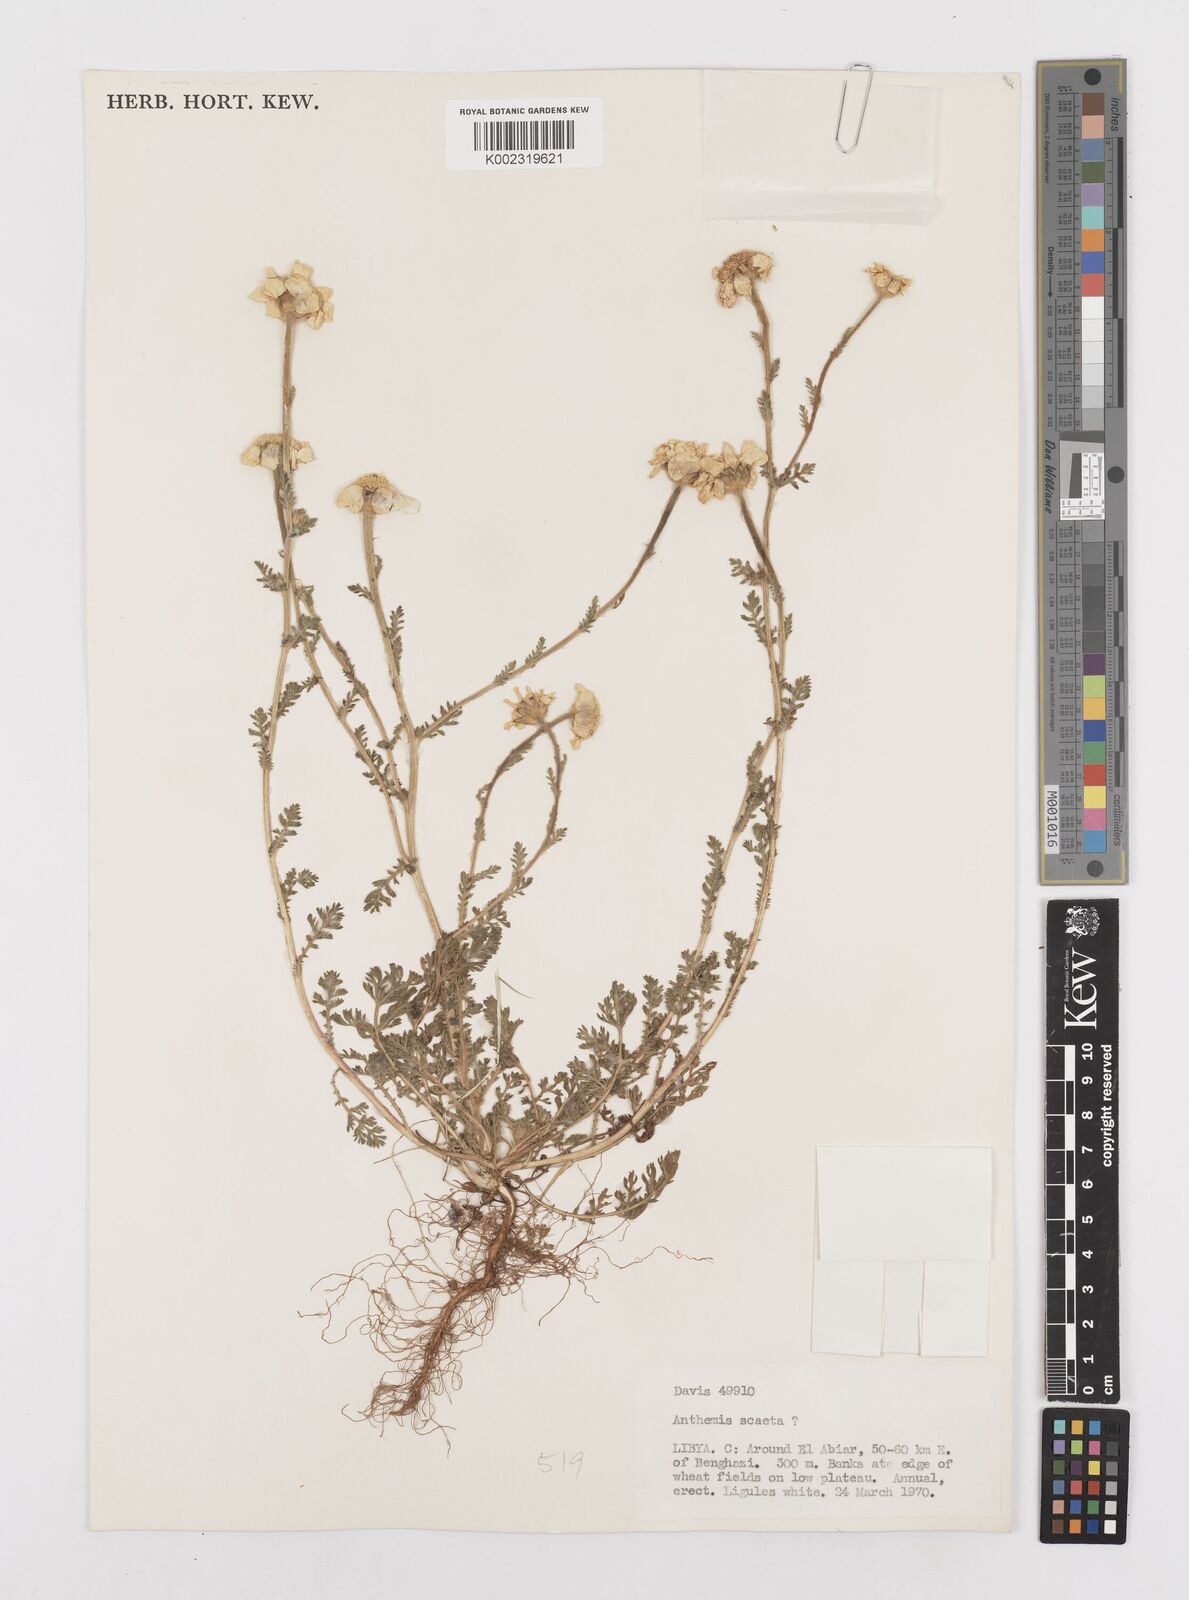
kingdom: Plantae
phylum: Tracheophyta
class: Magnoliopsida
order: Asterales
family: Asteraceae
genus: Anacyclus
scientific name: Anacyclus clavatus
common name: Whitebuttons
